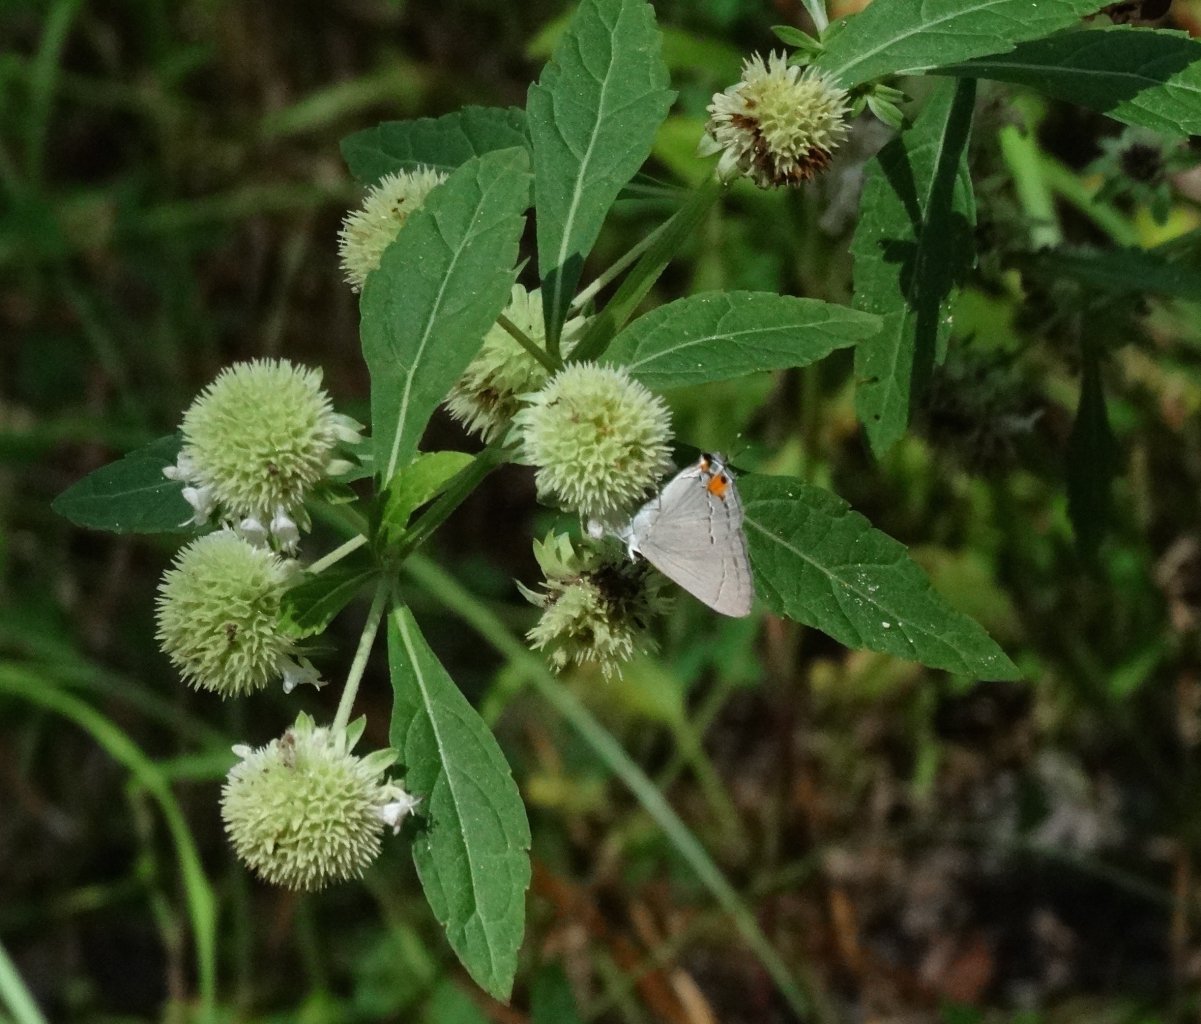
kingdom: Animalia
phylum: Arthropoda
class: Insecta
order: Lepidoptera
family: Lycaenidae
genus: Strymon
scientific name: Strymon melinus
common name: Gray Hairstreak
